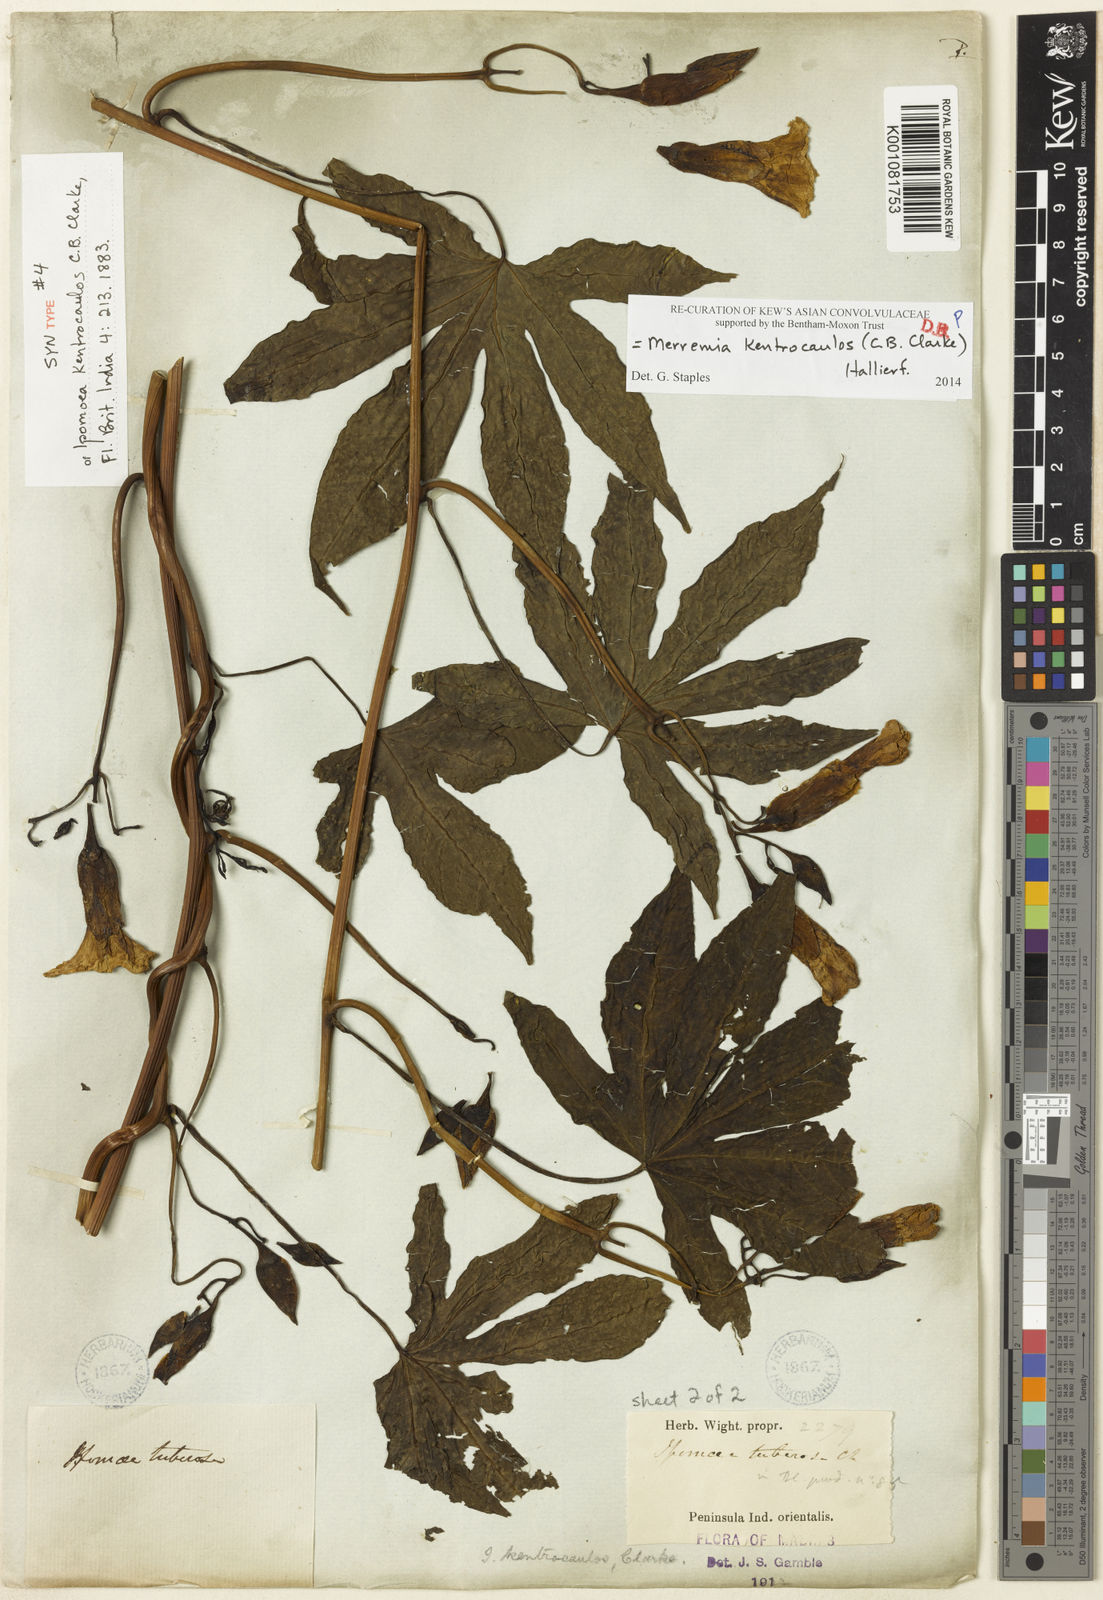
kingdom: Plantae
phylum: Tracheophyta
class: Magnoliopsida
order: Solanales
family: Convolvulaceae
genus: Distimake
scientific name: Distimake
